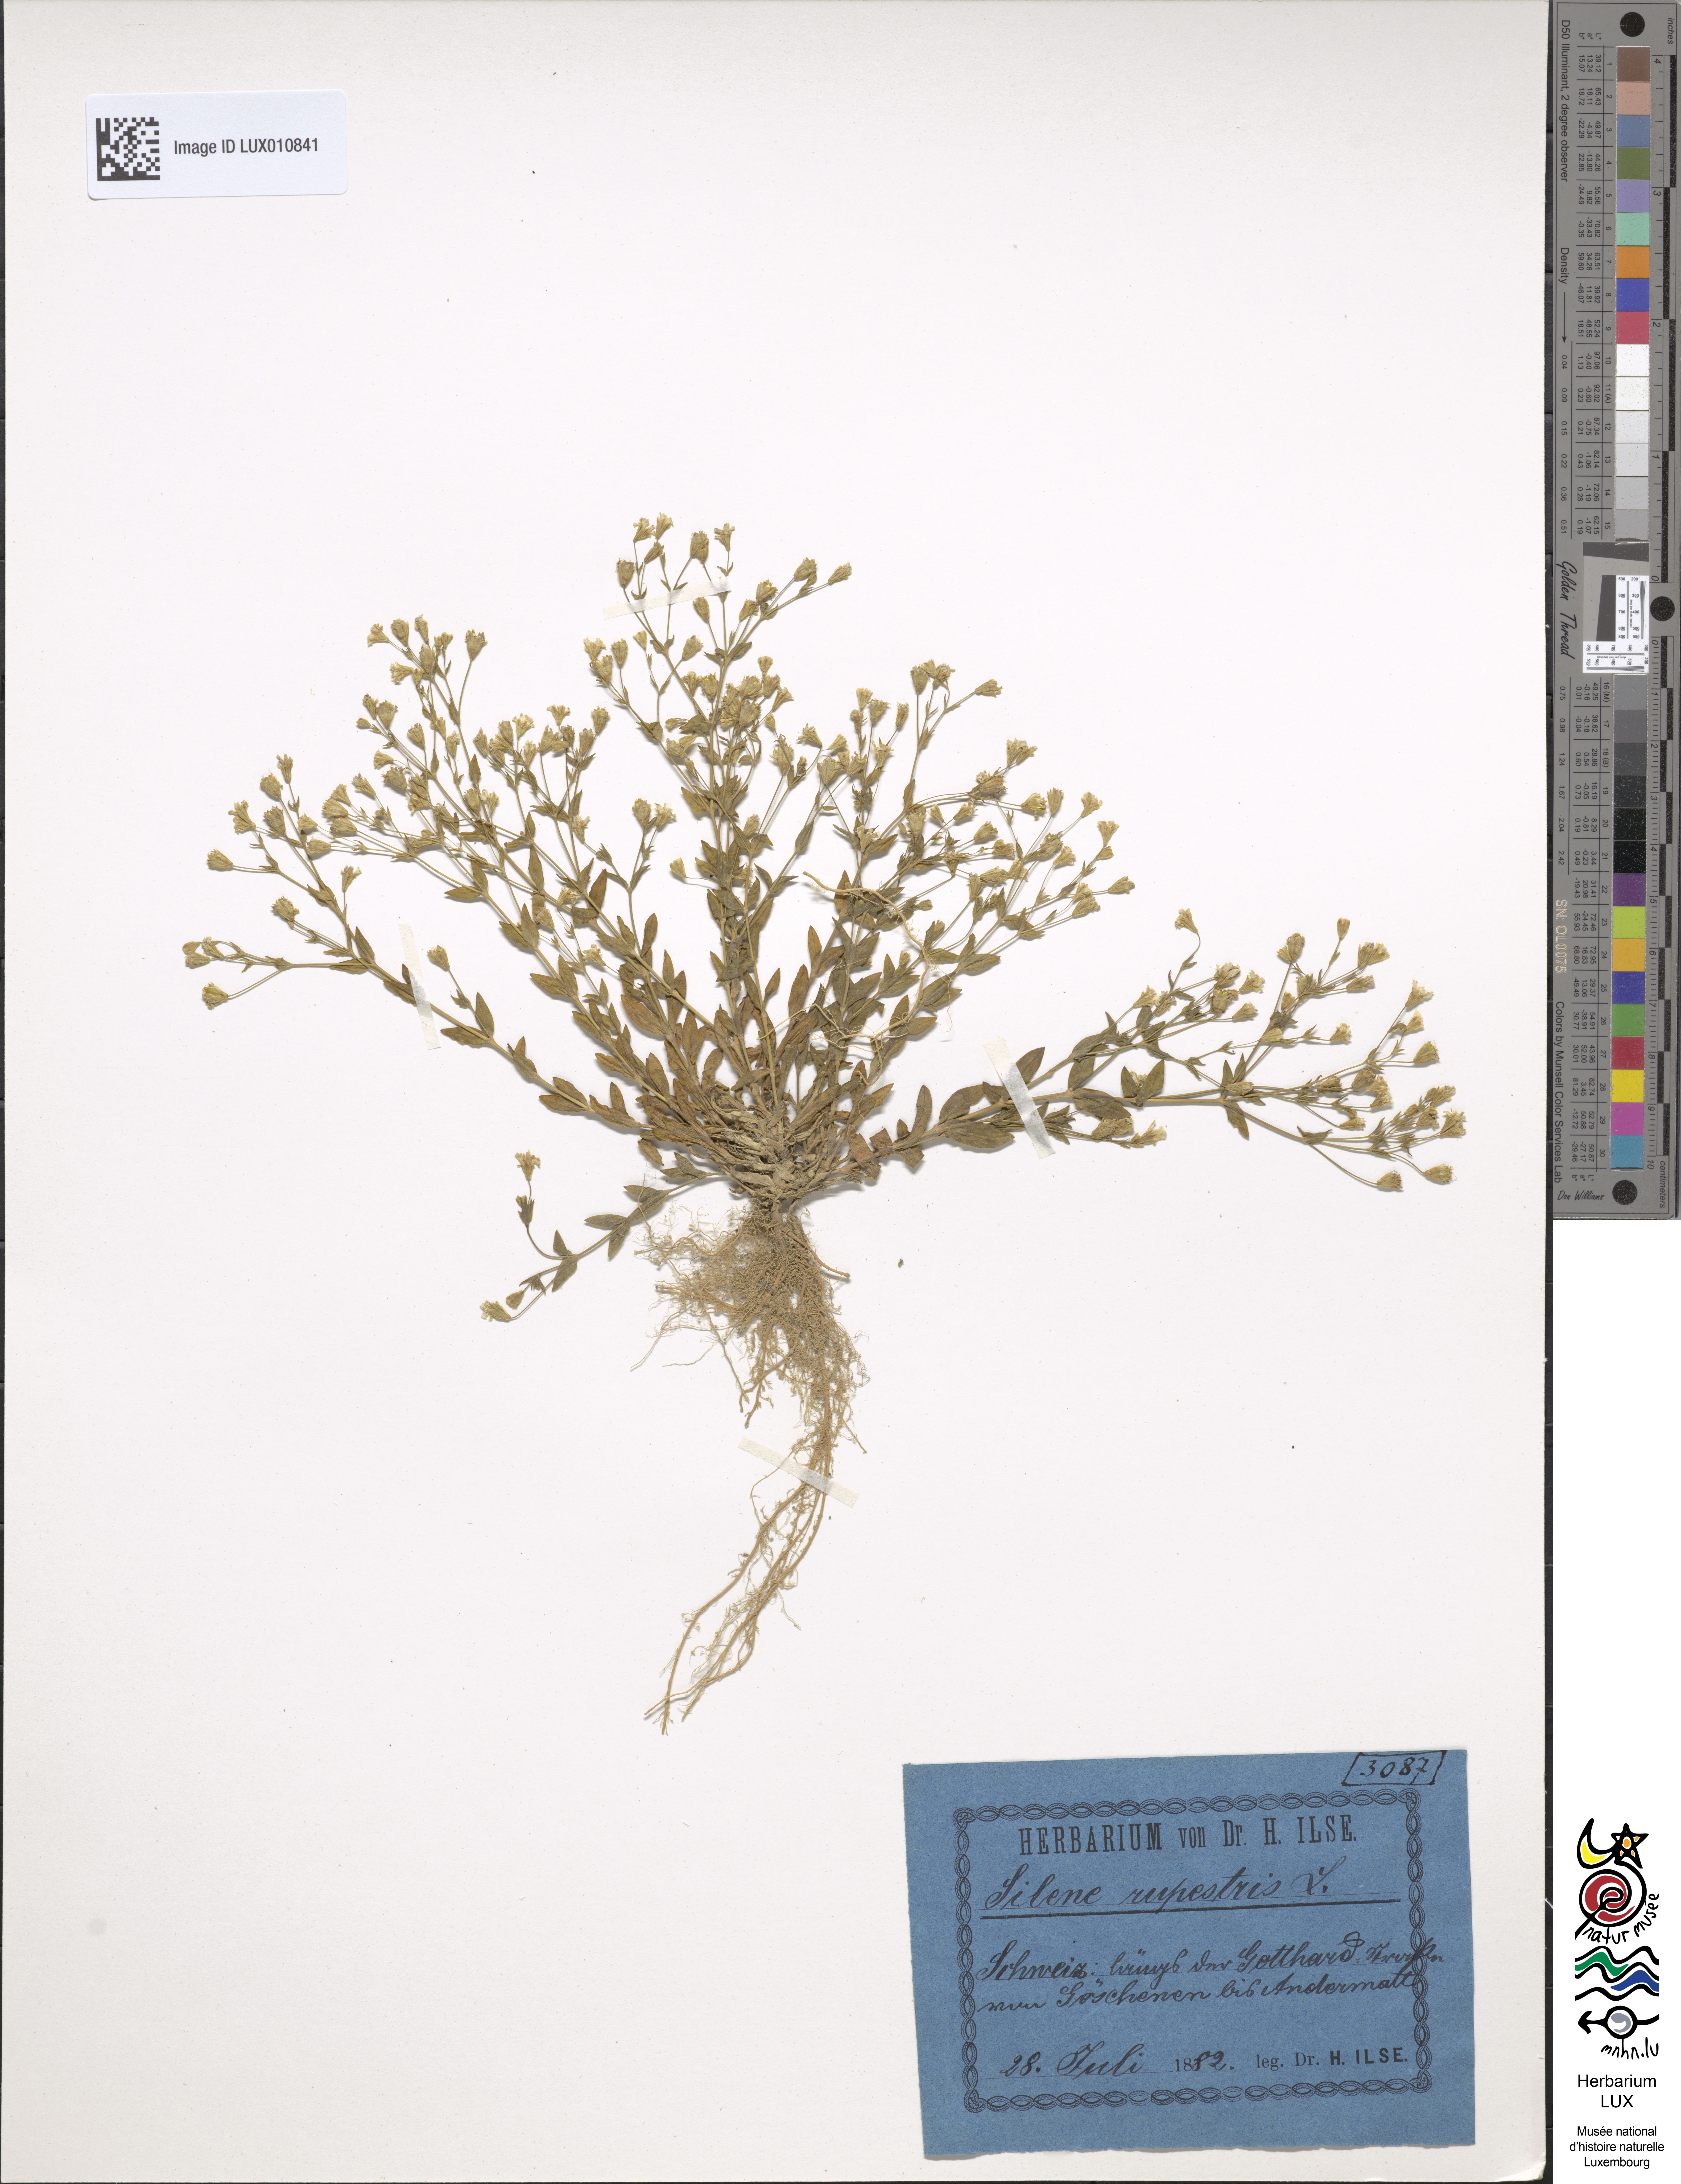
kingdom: Plantae
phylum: Tracheophyta
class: Magnoliopsida
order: Caryophyllales
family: Caryophyllaceae
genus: Atocion
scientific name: Atocion rupestre
